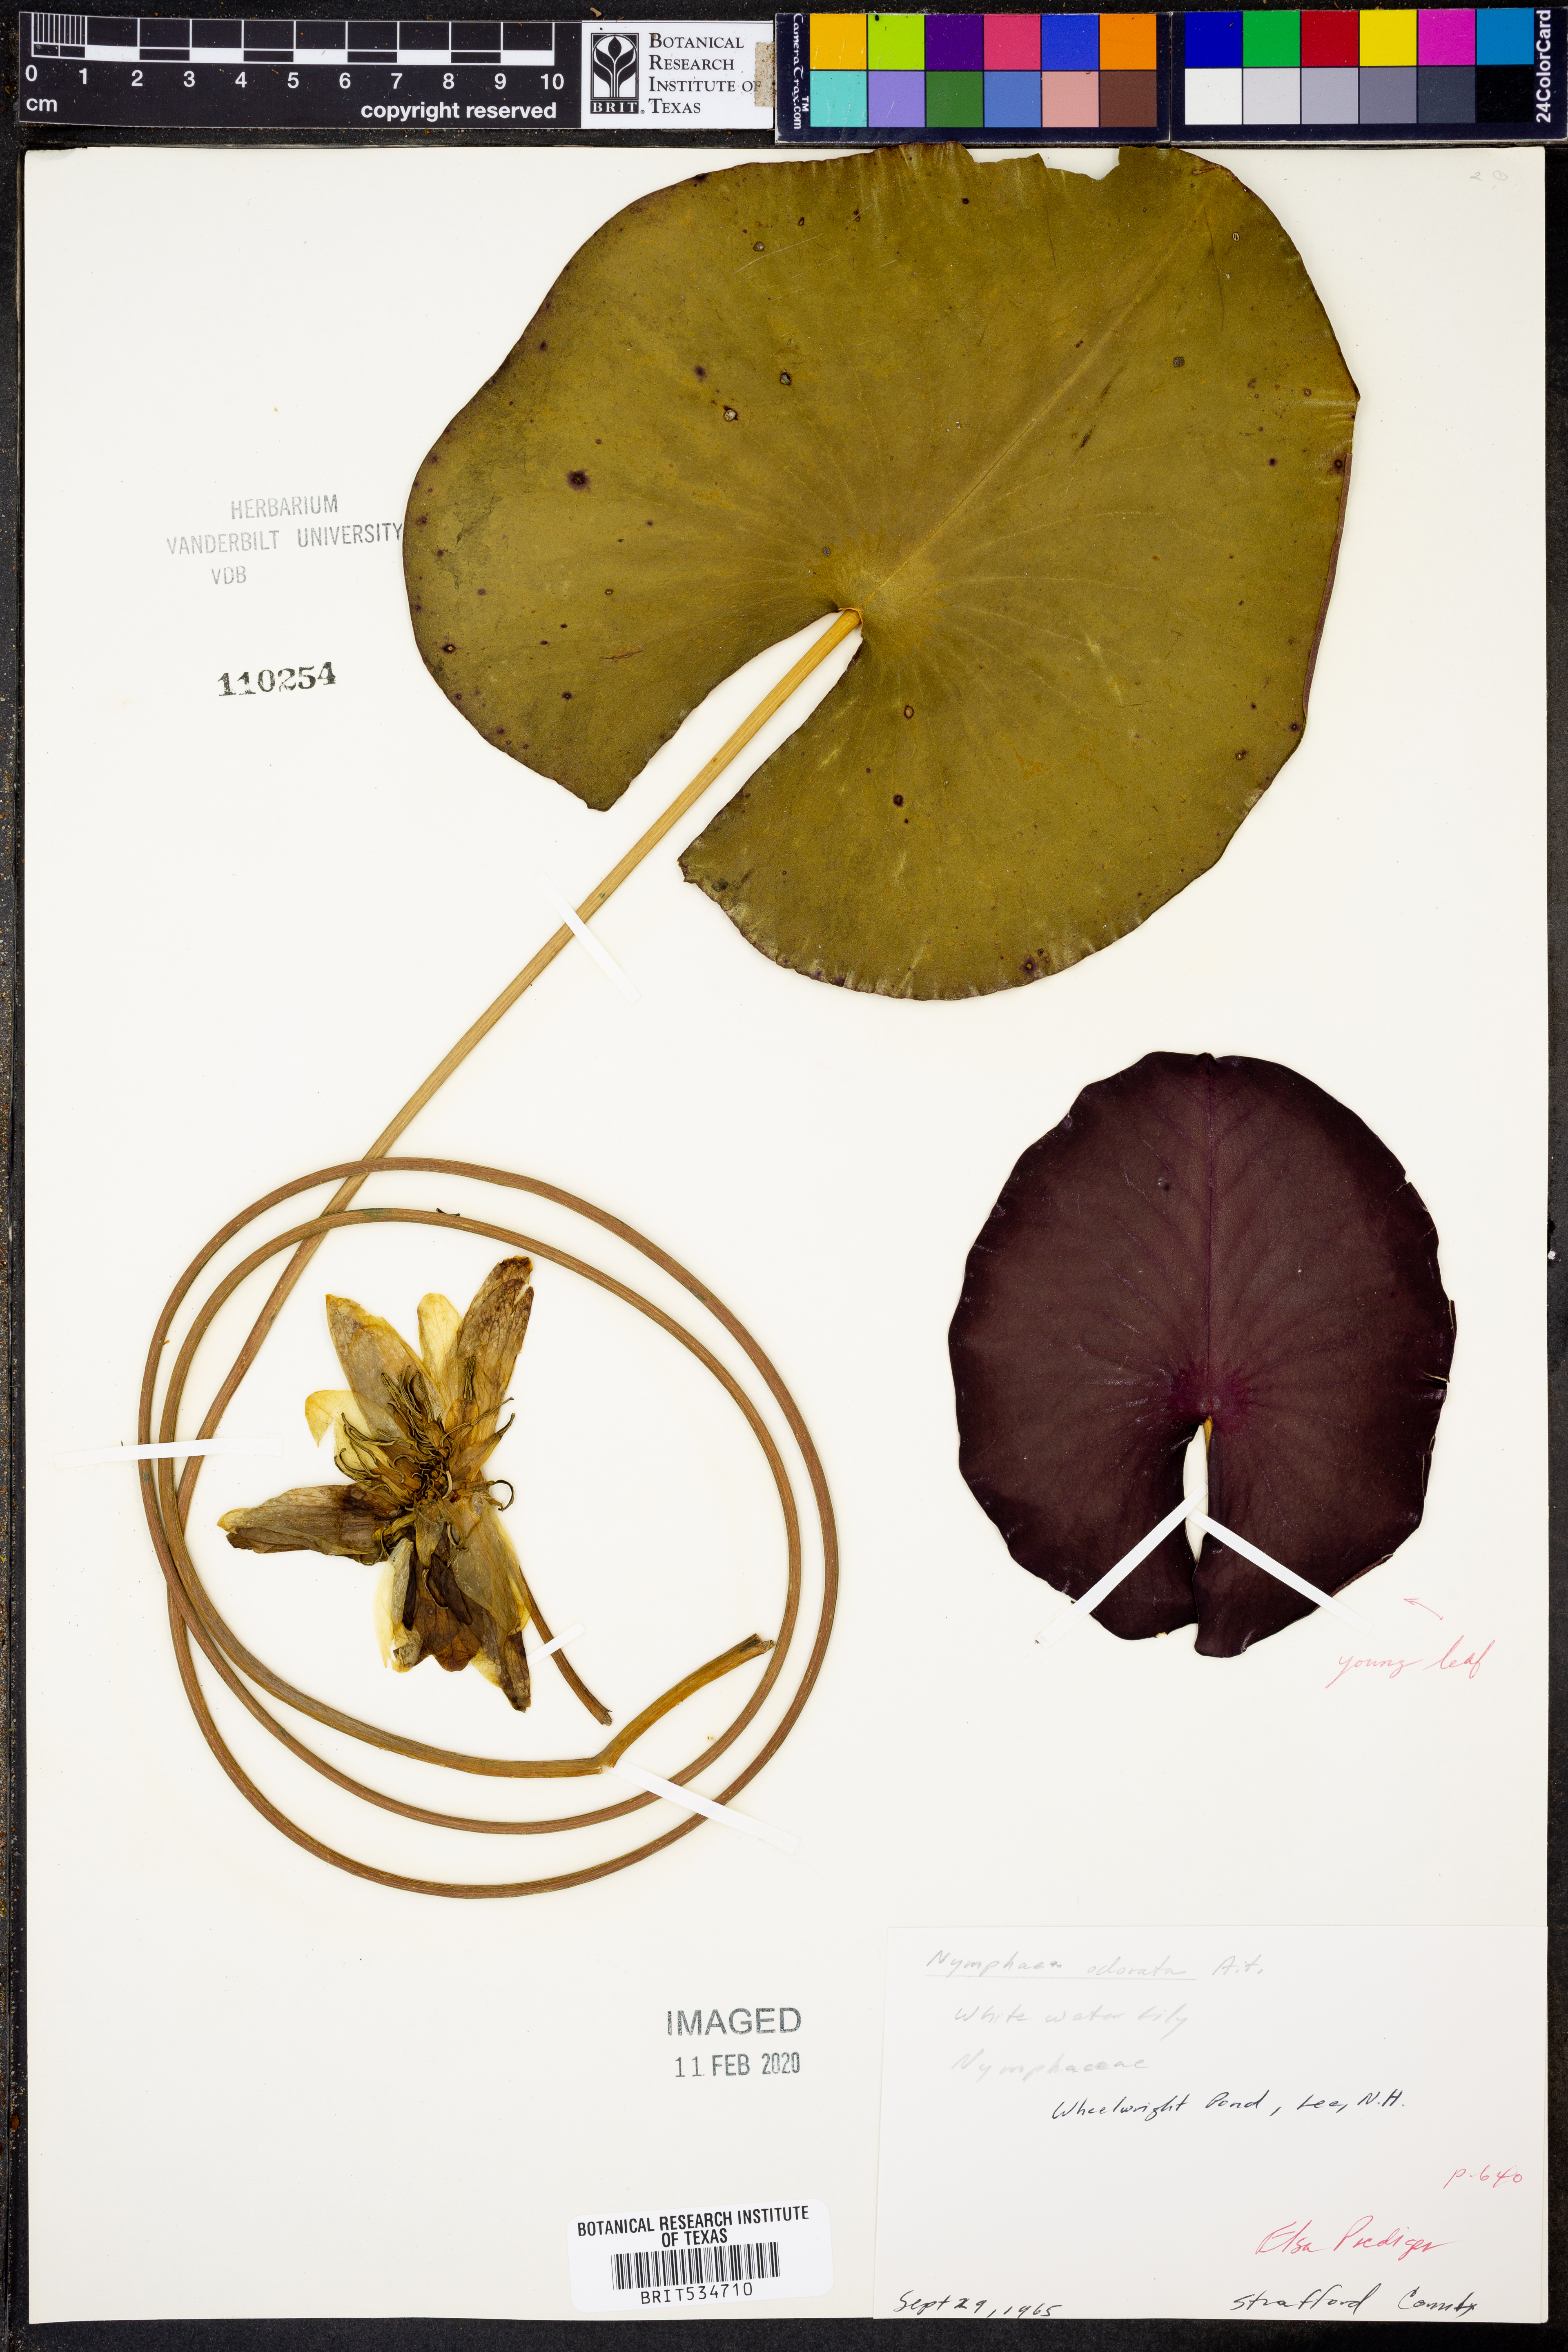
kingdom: Plantae
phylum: Tracheophyta
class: Magnoliopsida
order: Nymphaeales
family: Nymphaeaceae
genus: Nymphaea
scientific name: Nymphaea odorata
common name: Fragrant water-lily
